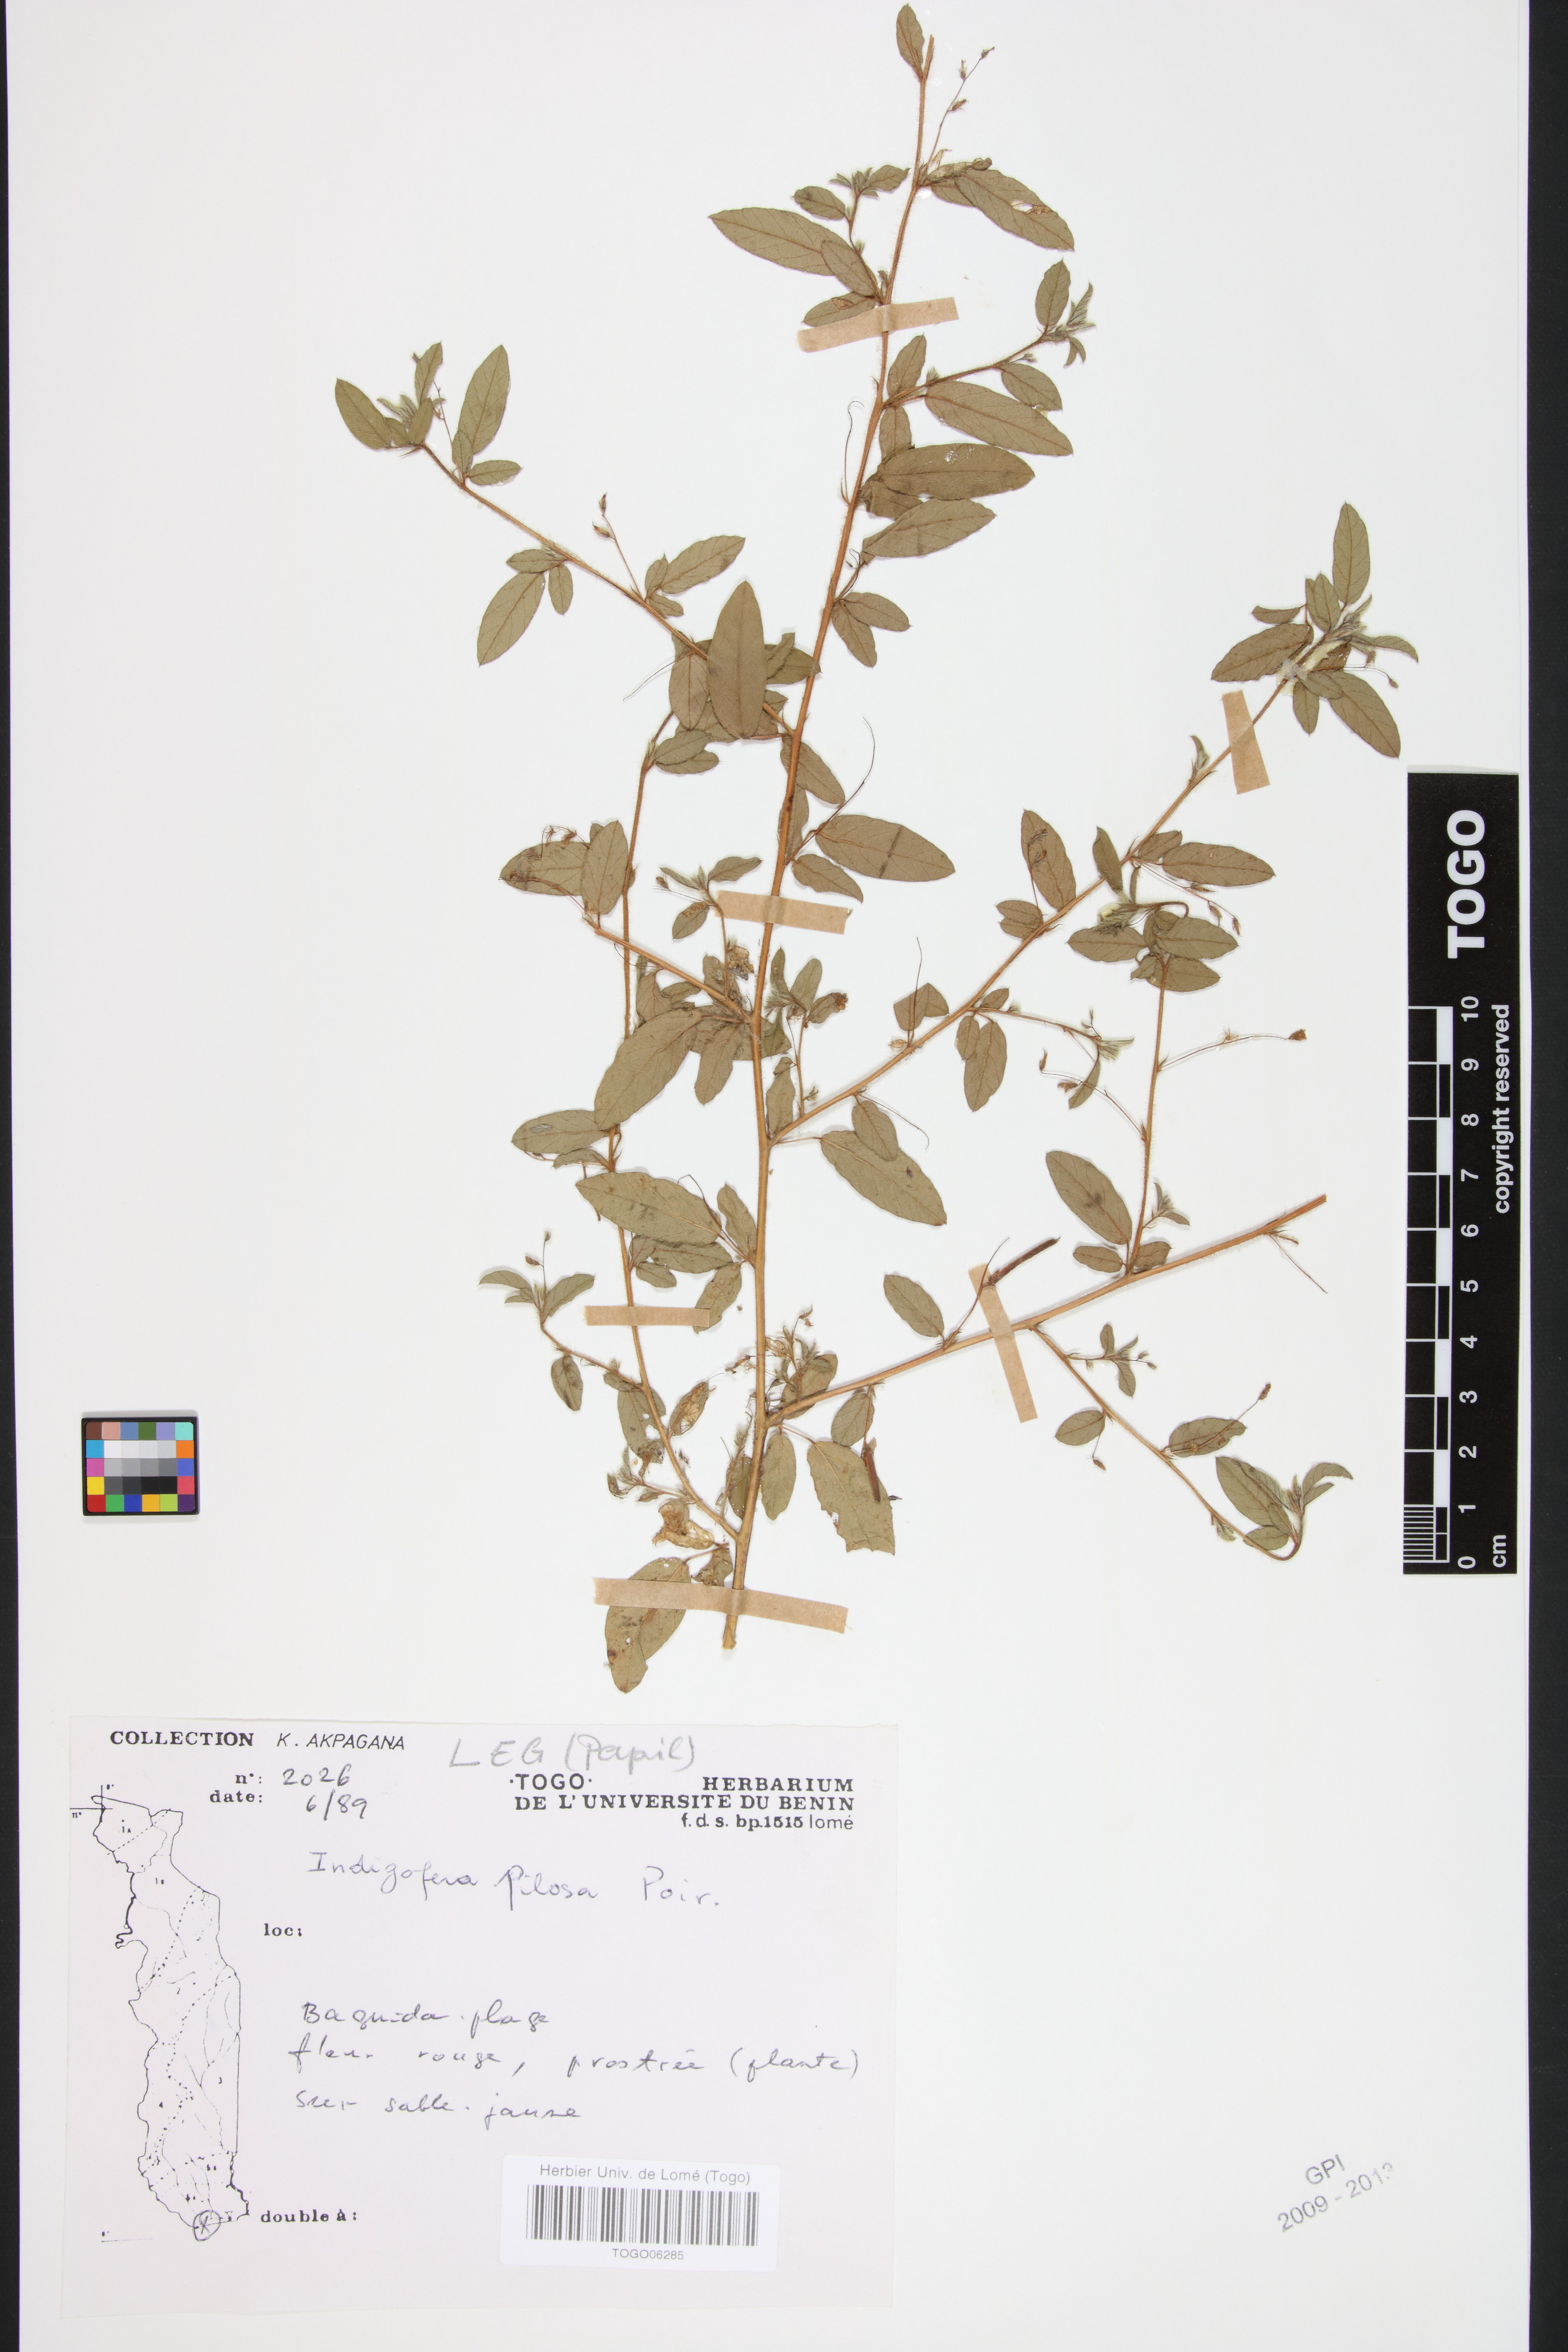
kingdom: Plantae
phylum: Tracheophyta
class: Magnoliopsida
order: Fabales
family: Fabaceae
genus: Indigofera
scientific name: Indigofera pilosa
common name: Softhairy indigo
